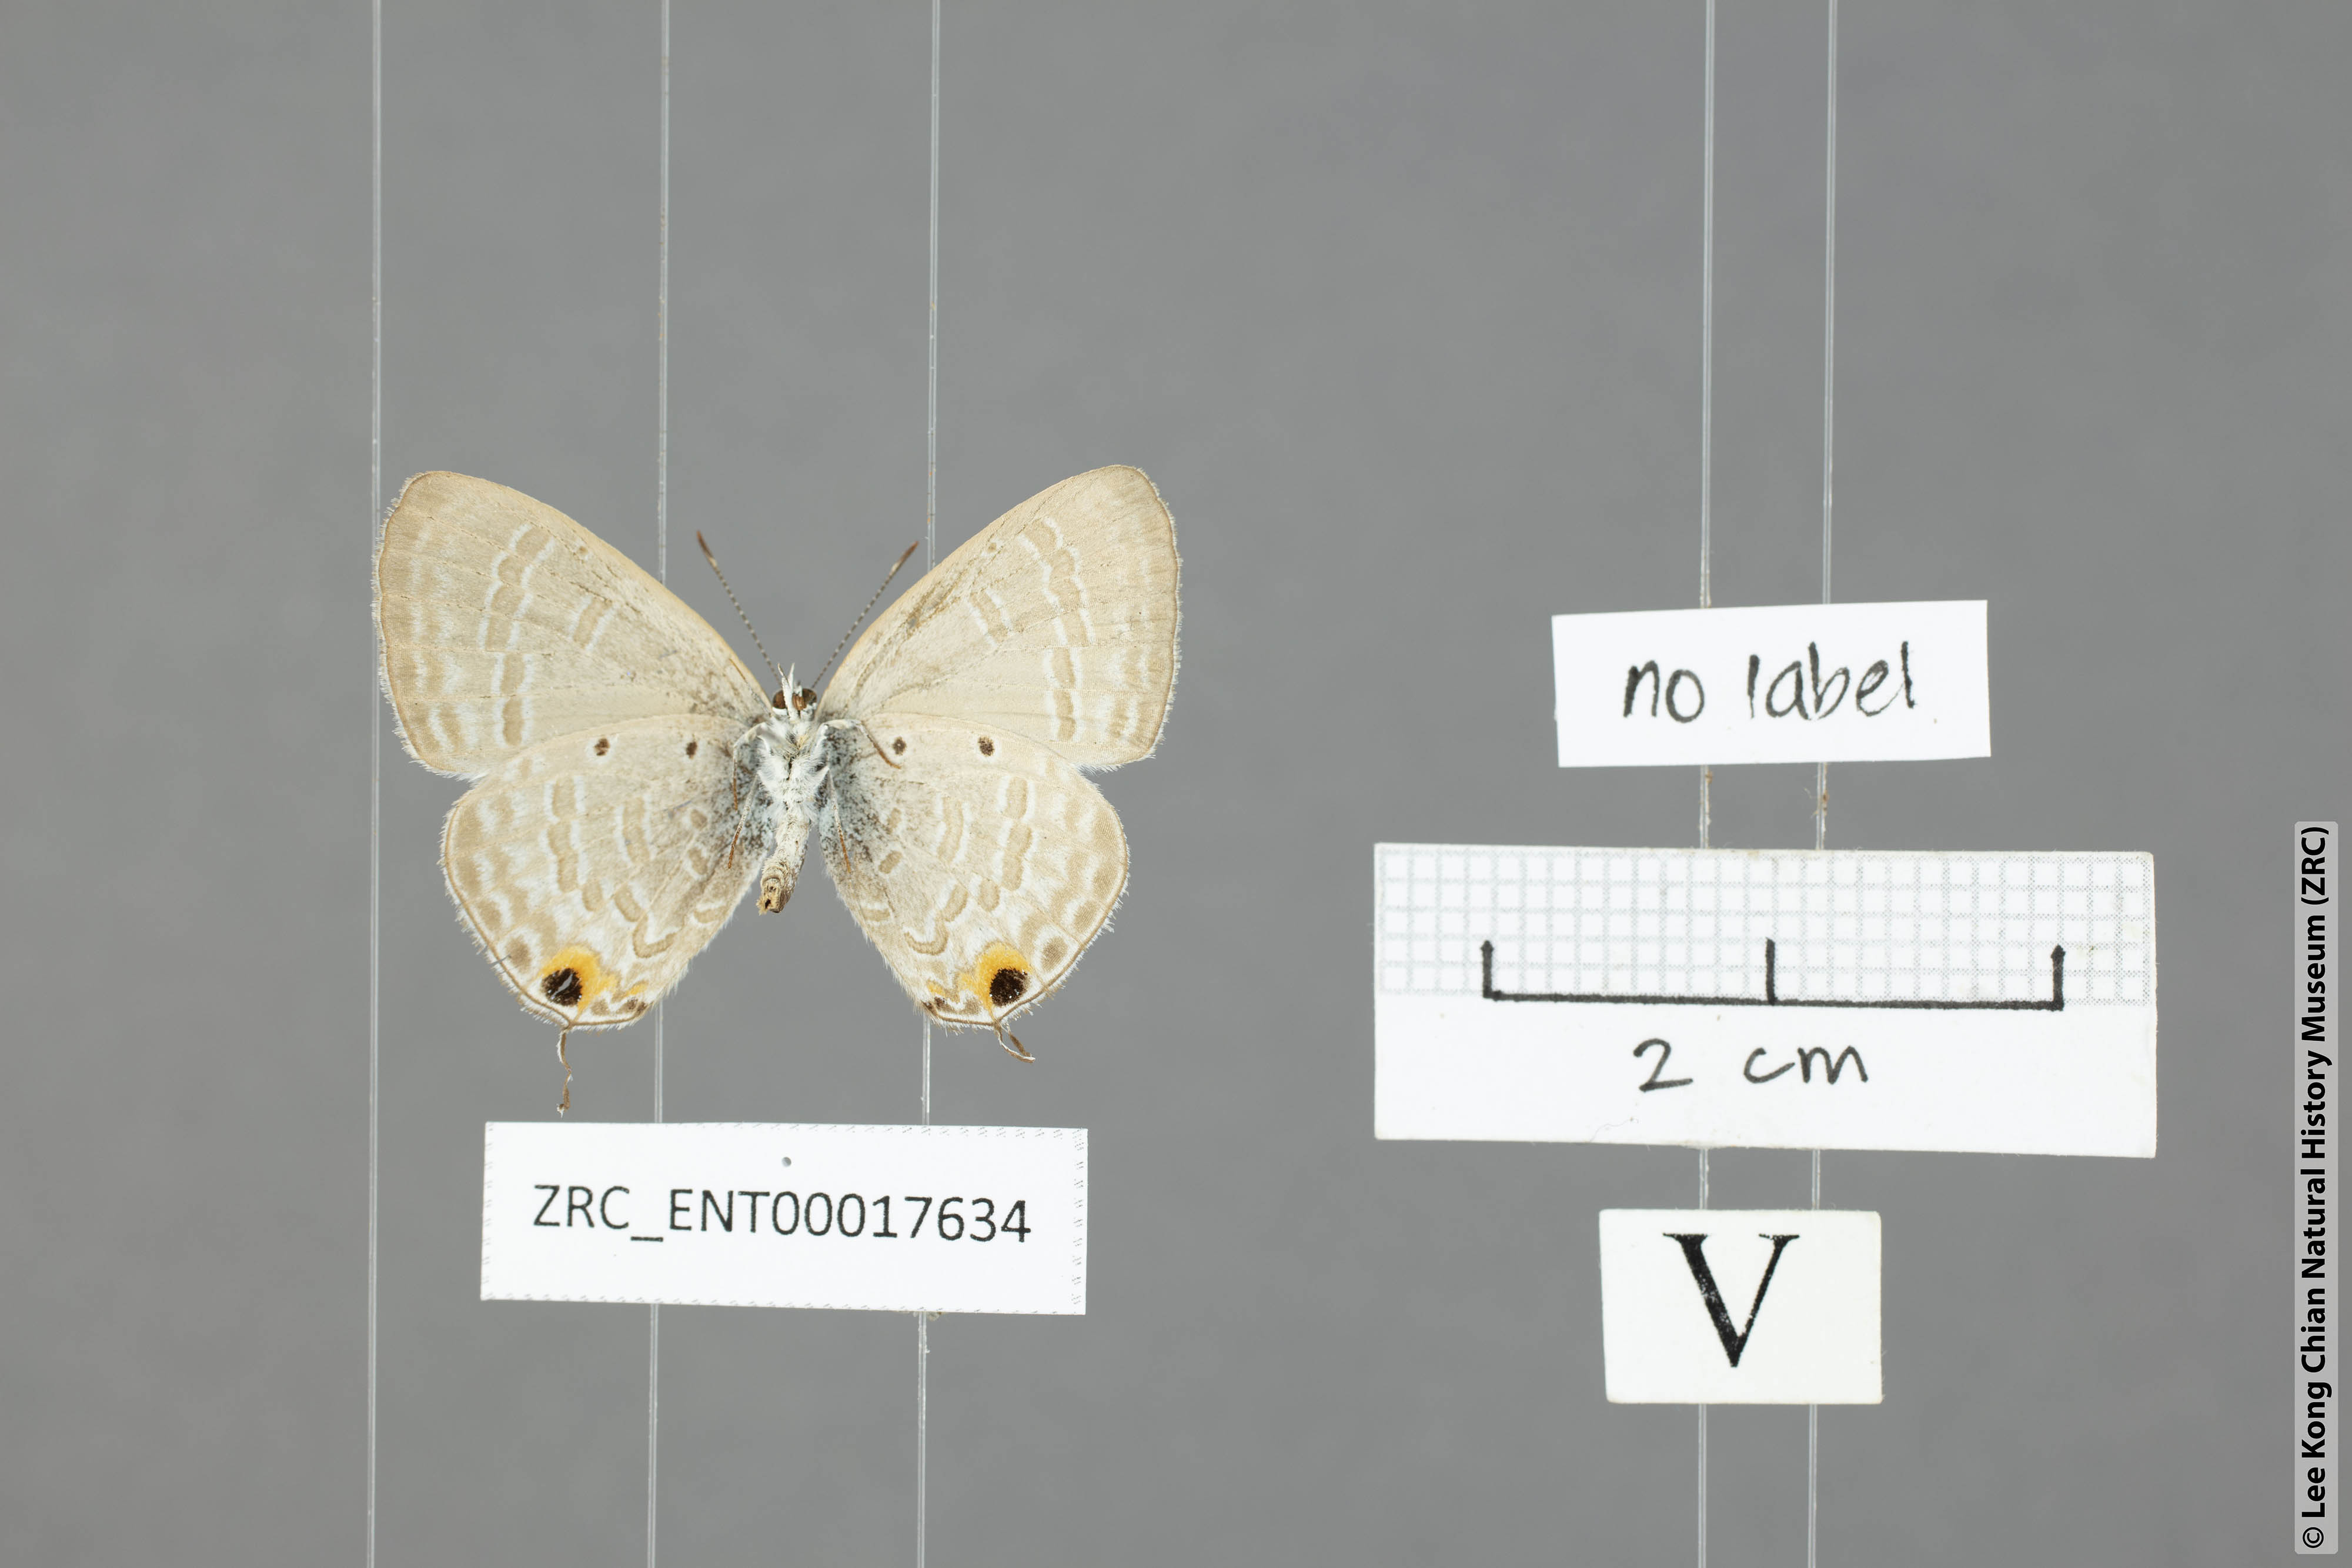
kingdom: Animalia
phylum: Arthropoda
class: Insecta
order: Lepidoptera
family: Lycaenidae
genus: Catochrysops
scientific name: Catochrysops strabo
